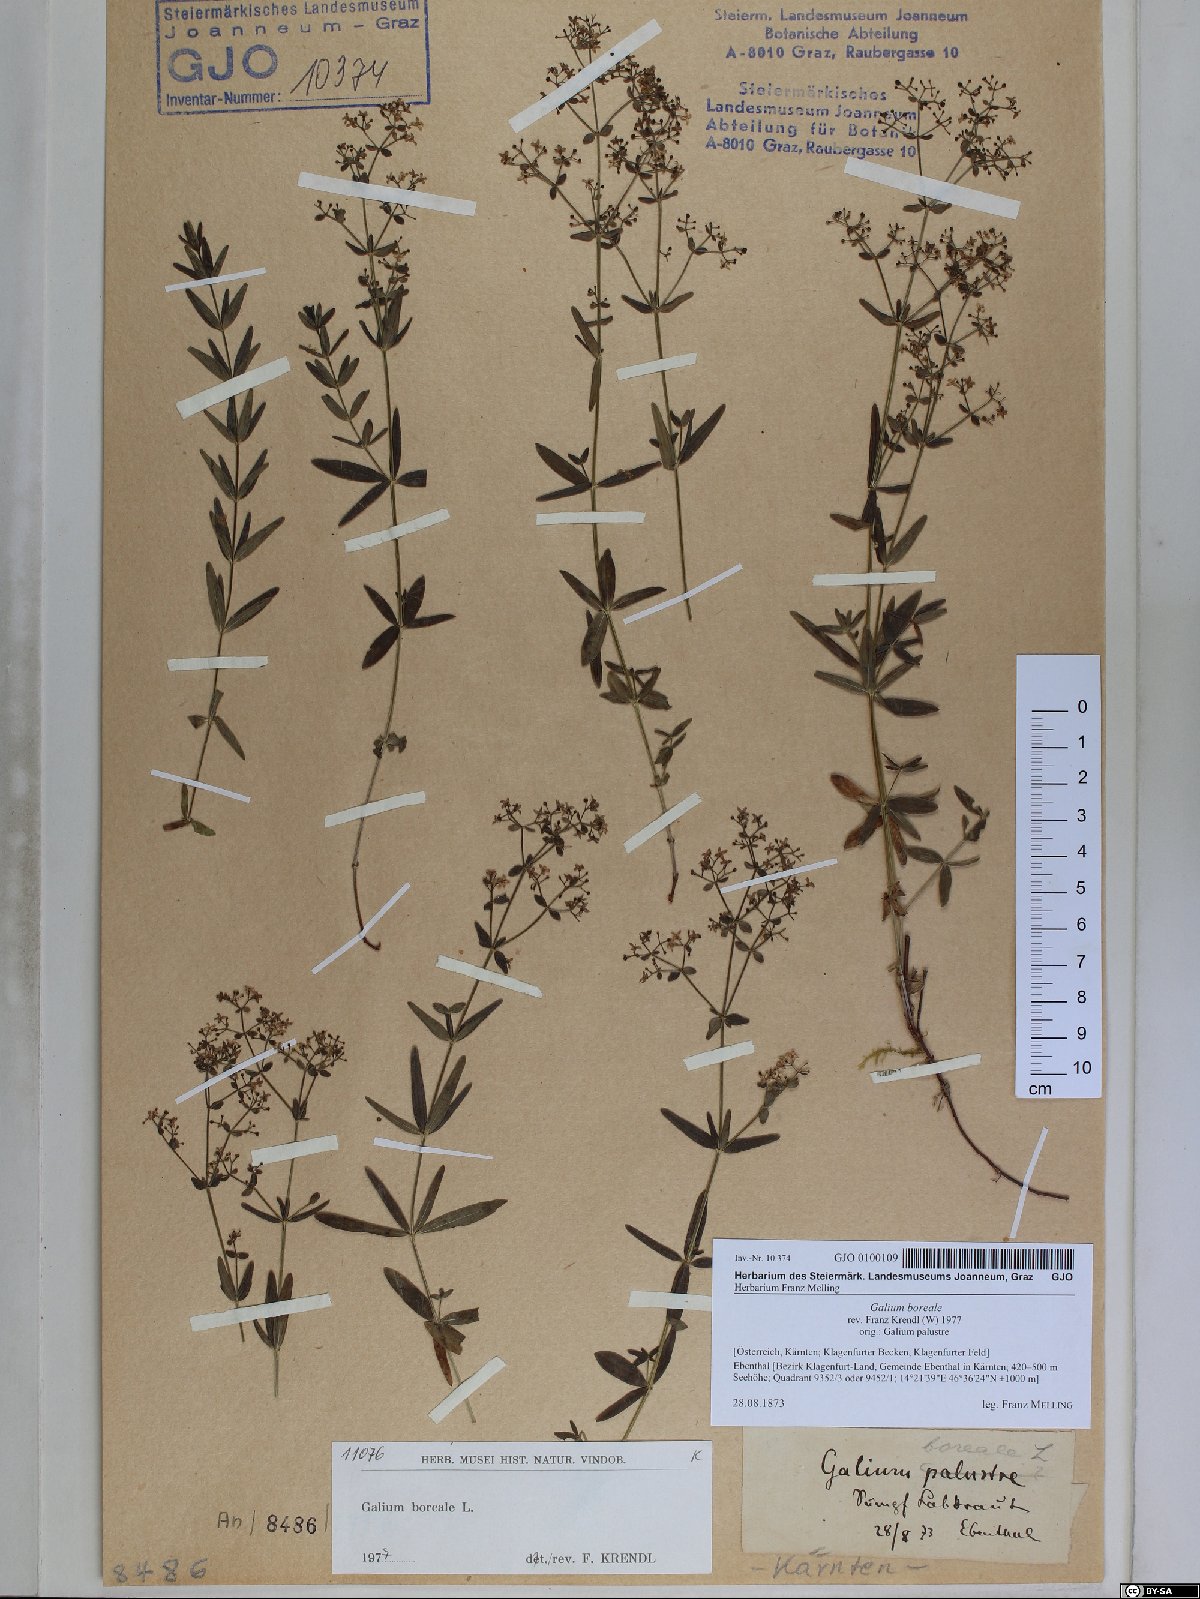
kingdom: Plantae
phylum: Tracheophyta
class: Magnoliopsida
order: Gentianales
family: Rubiaceae
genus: Galium
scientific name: Galium boreale
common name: Northern bedstraw
